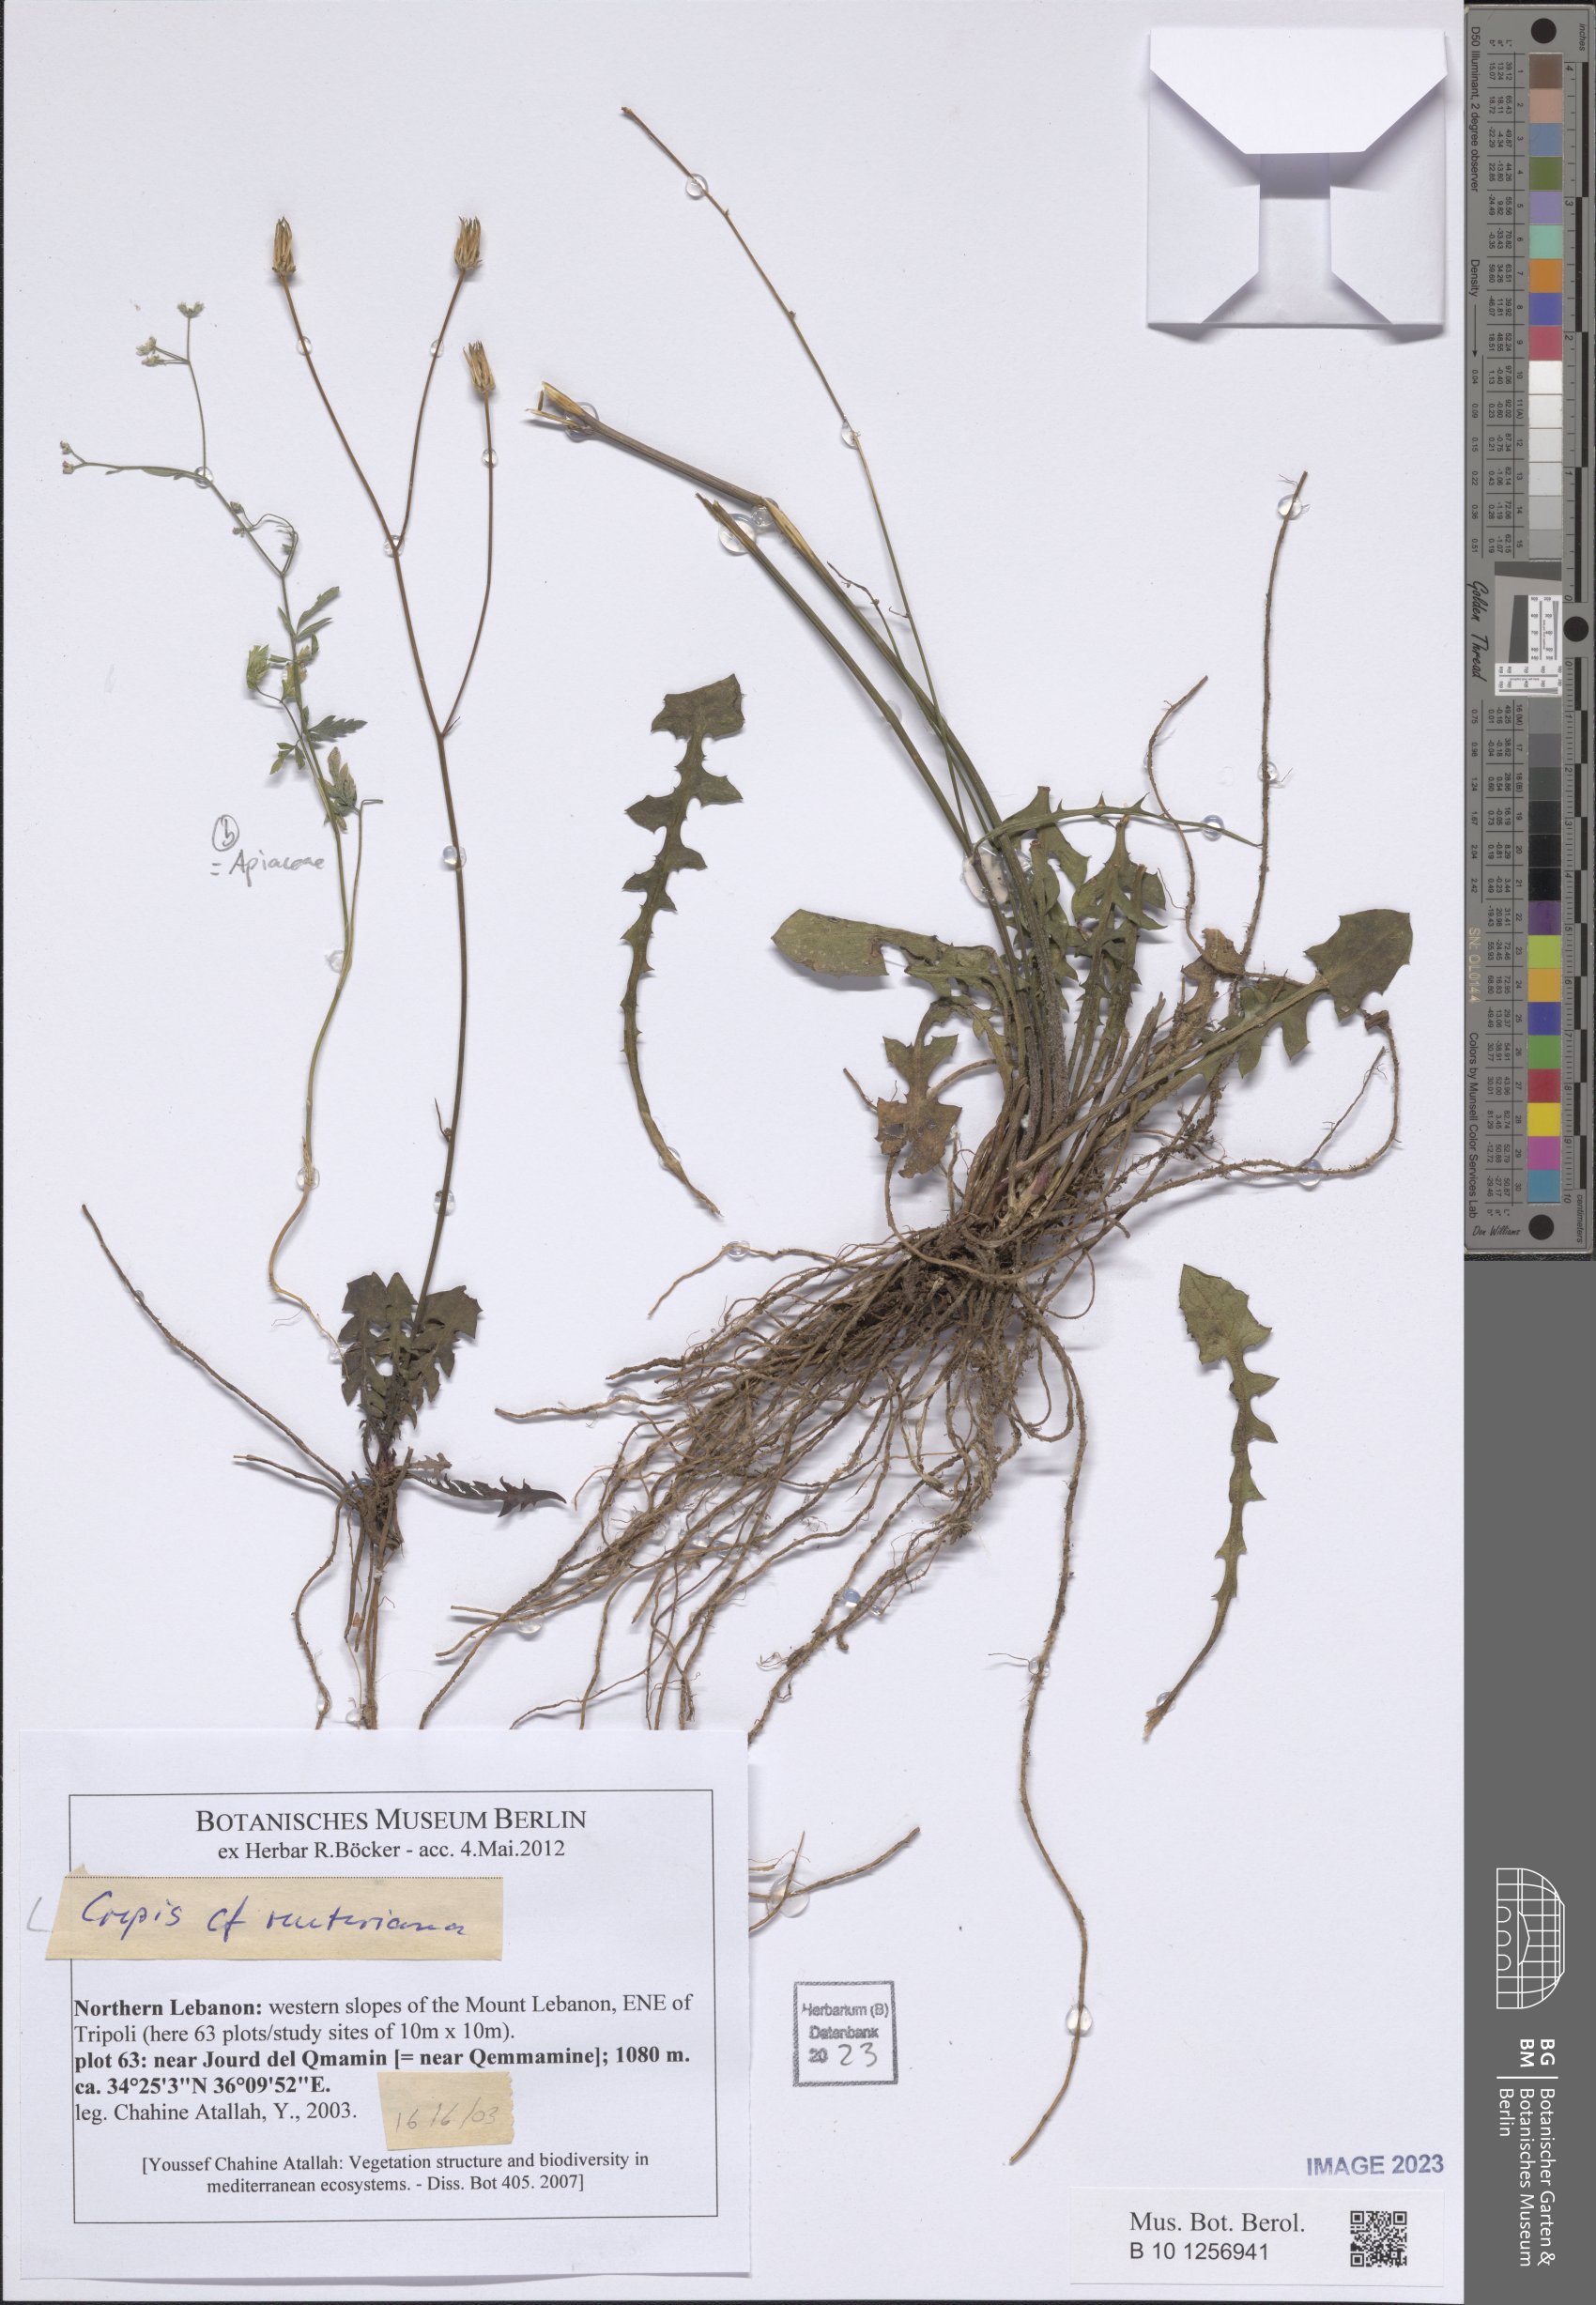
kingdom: Plantae
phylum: Tracheophyta
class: Magnoliopsida
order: Asterales
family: Asteraceae
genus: Crepis
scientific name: Crepis reuteriana
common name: Hawk's-beard
